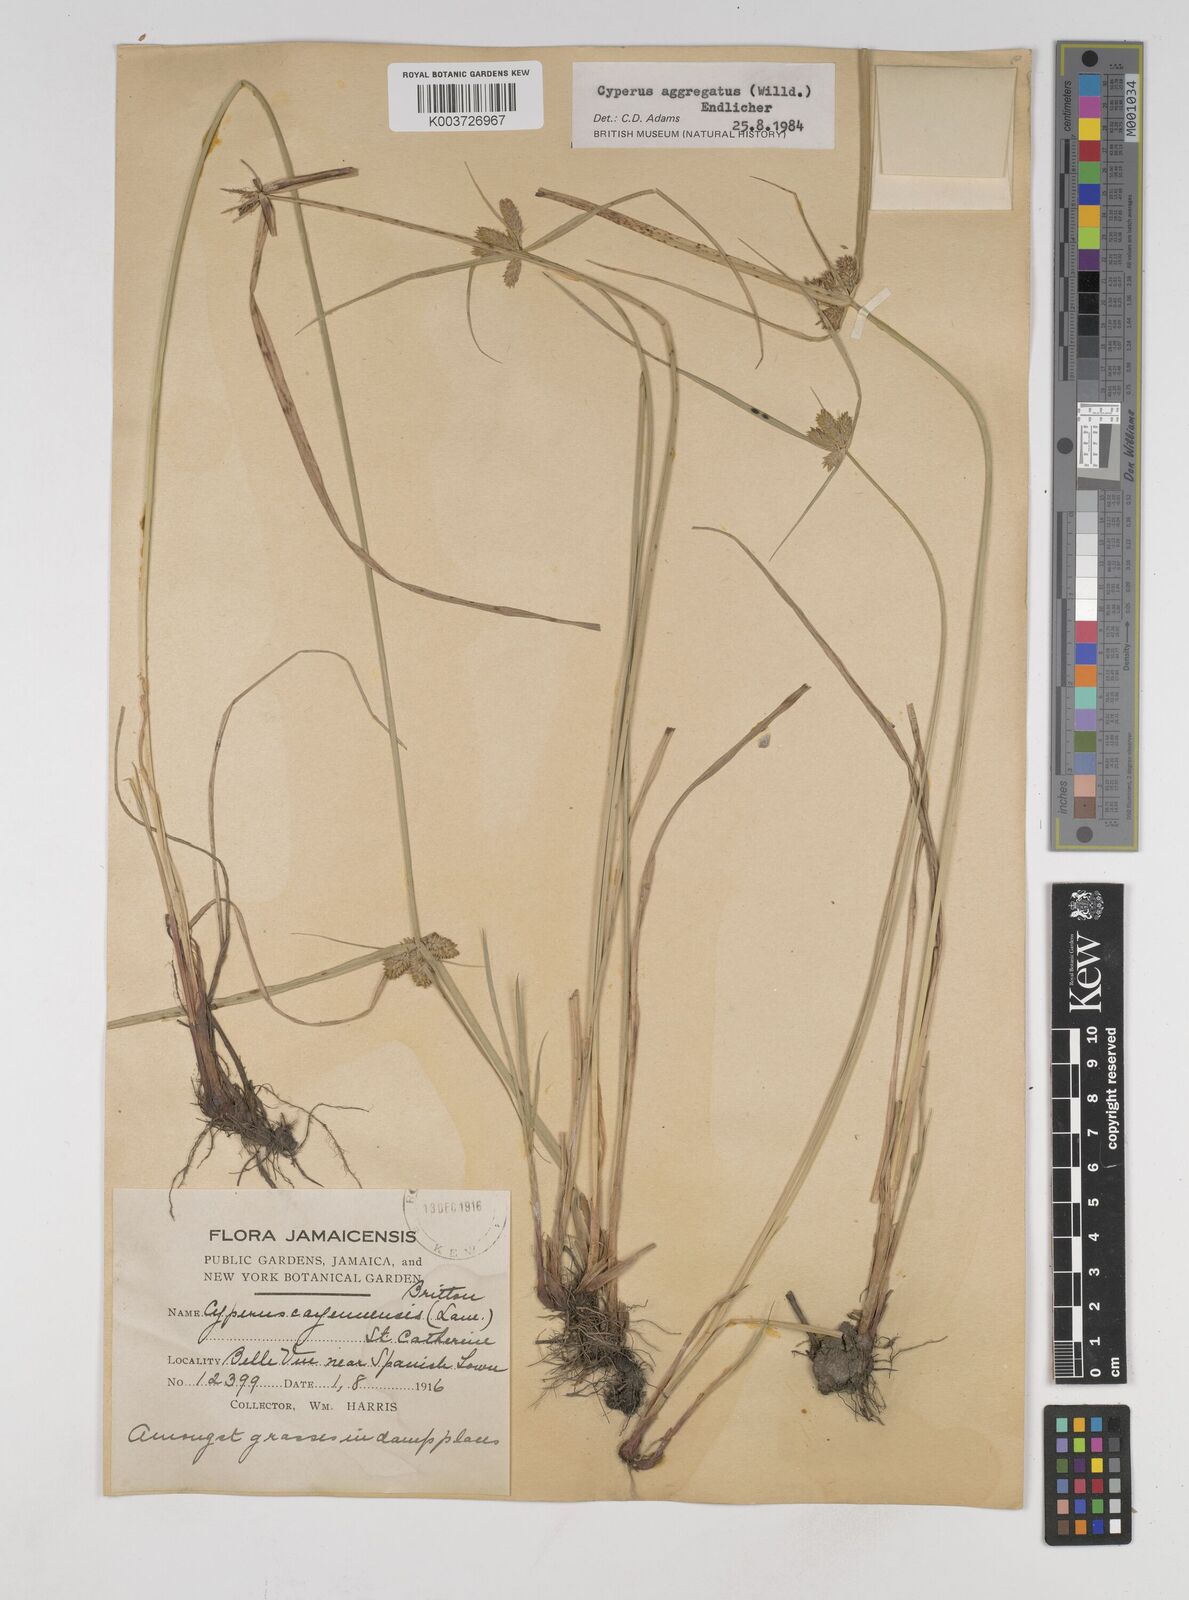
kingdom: Plantae
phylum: Tracheophyta
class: Liliopsida
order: Poales
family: Cyperaceae
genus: Cyperus
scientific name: Cyperus aggregatus
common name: Inflatedscale flatsedge
